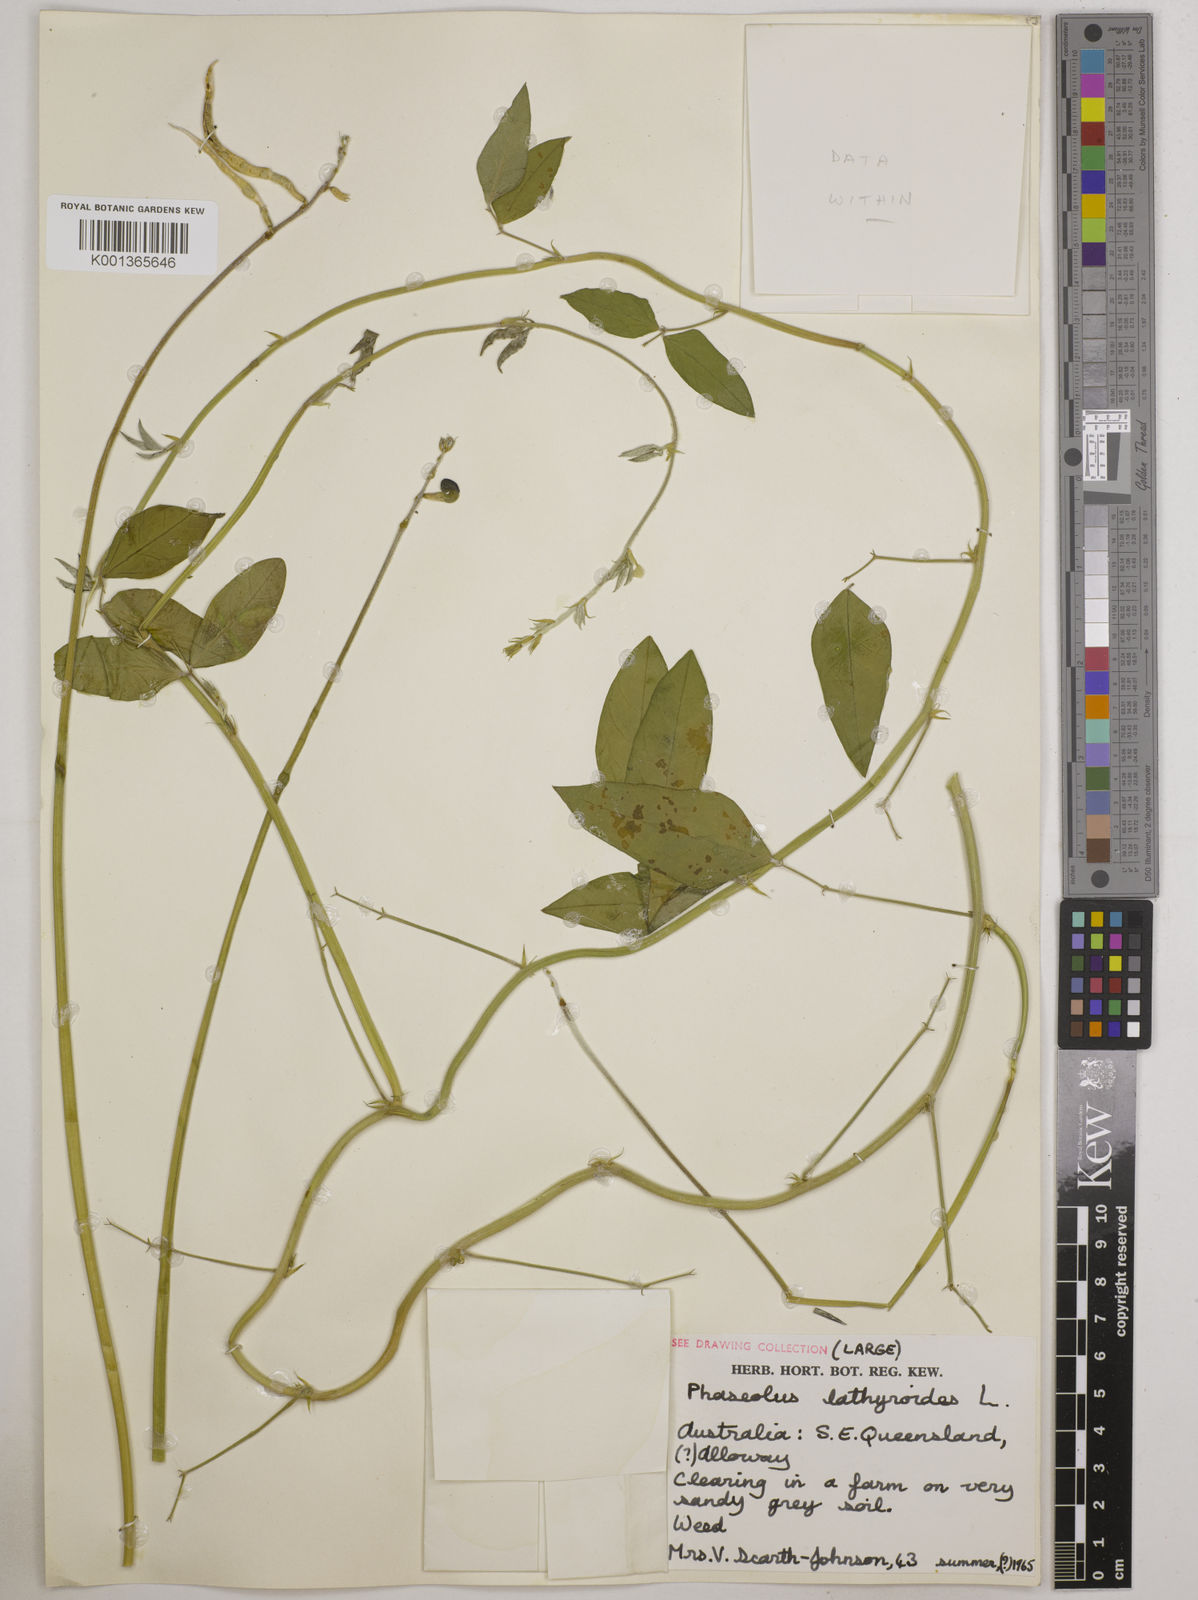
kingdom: Plantae
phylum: Tracheophyta
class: Magnoliopsida
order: Fabales
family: Fabaceae
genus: Macroptilium
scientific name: Macroptilium lathyroides
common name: Wild bushbean
